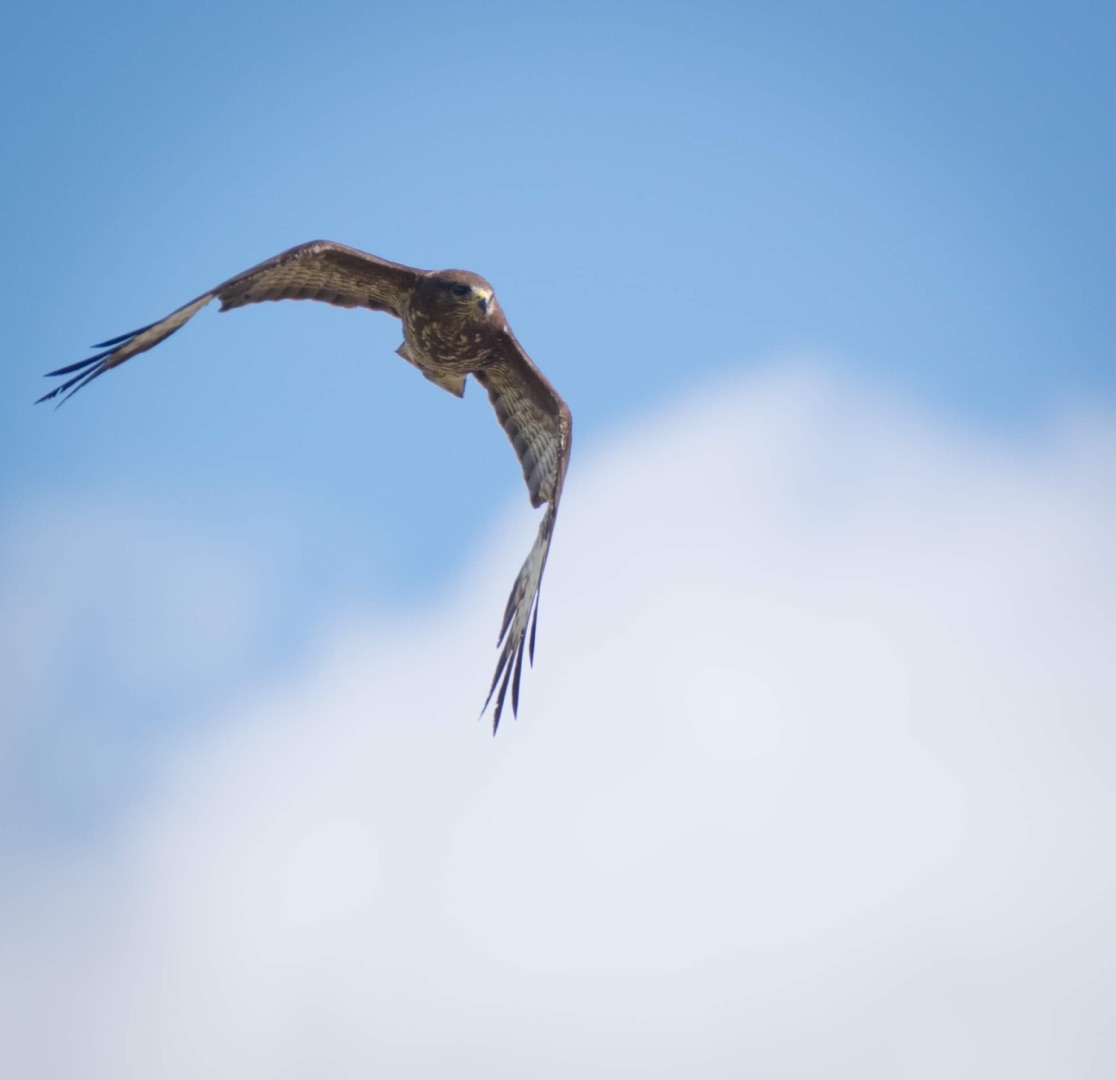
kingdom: Animalia
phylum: Chordata
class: Aves
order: Accipitriformes
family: Accipitridae
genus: Buteo
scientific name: Buteo buteo
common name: Musvåge
